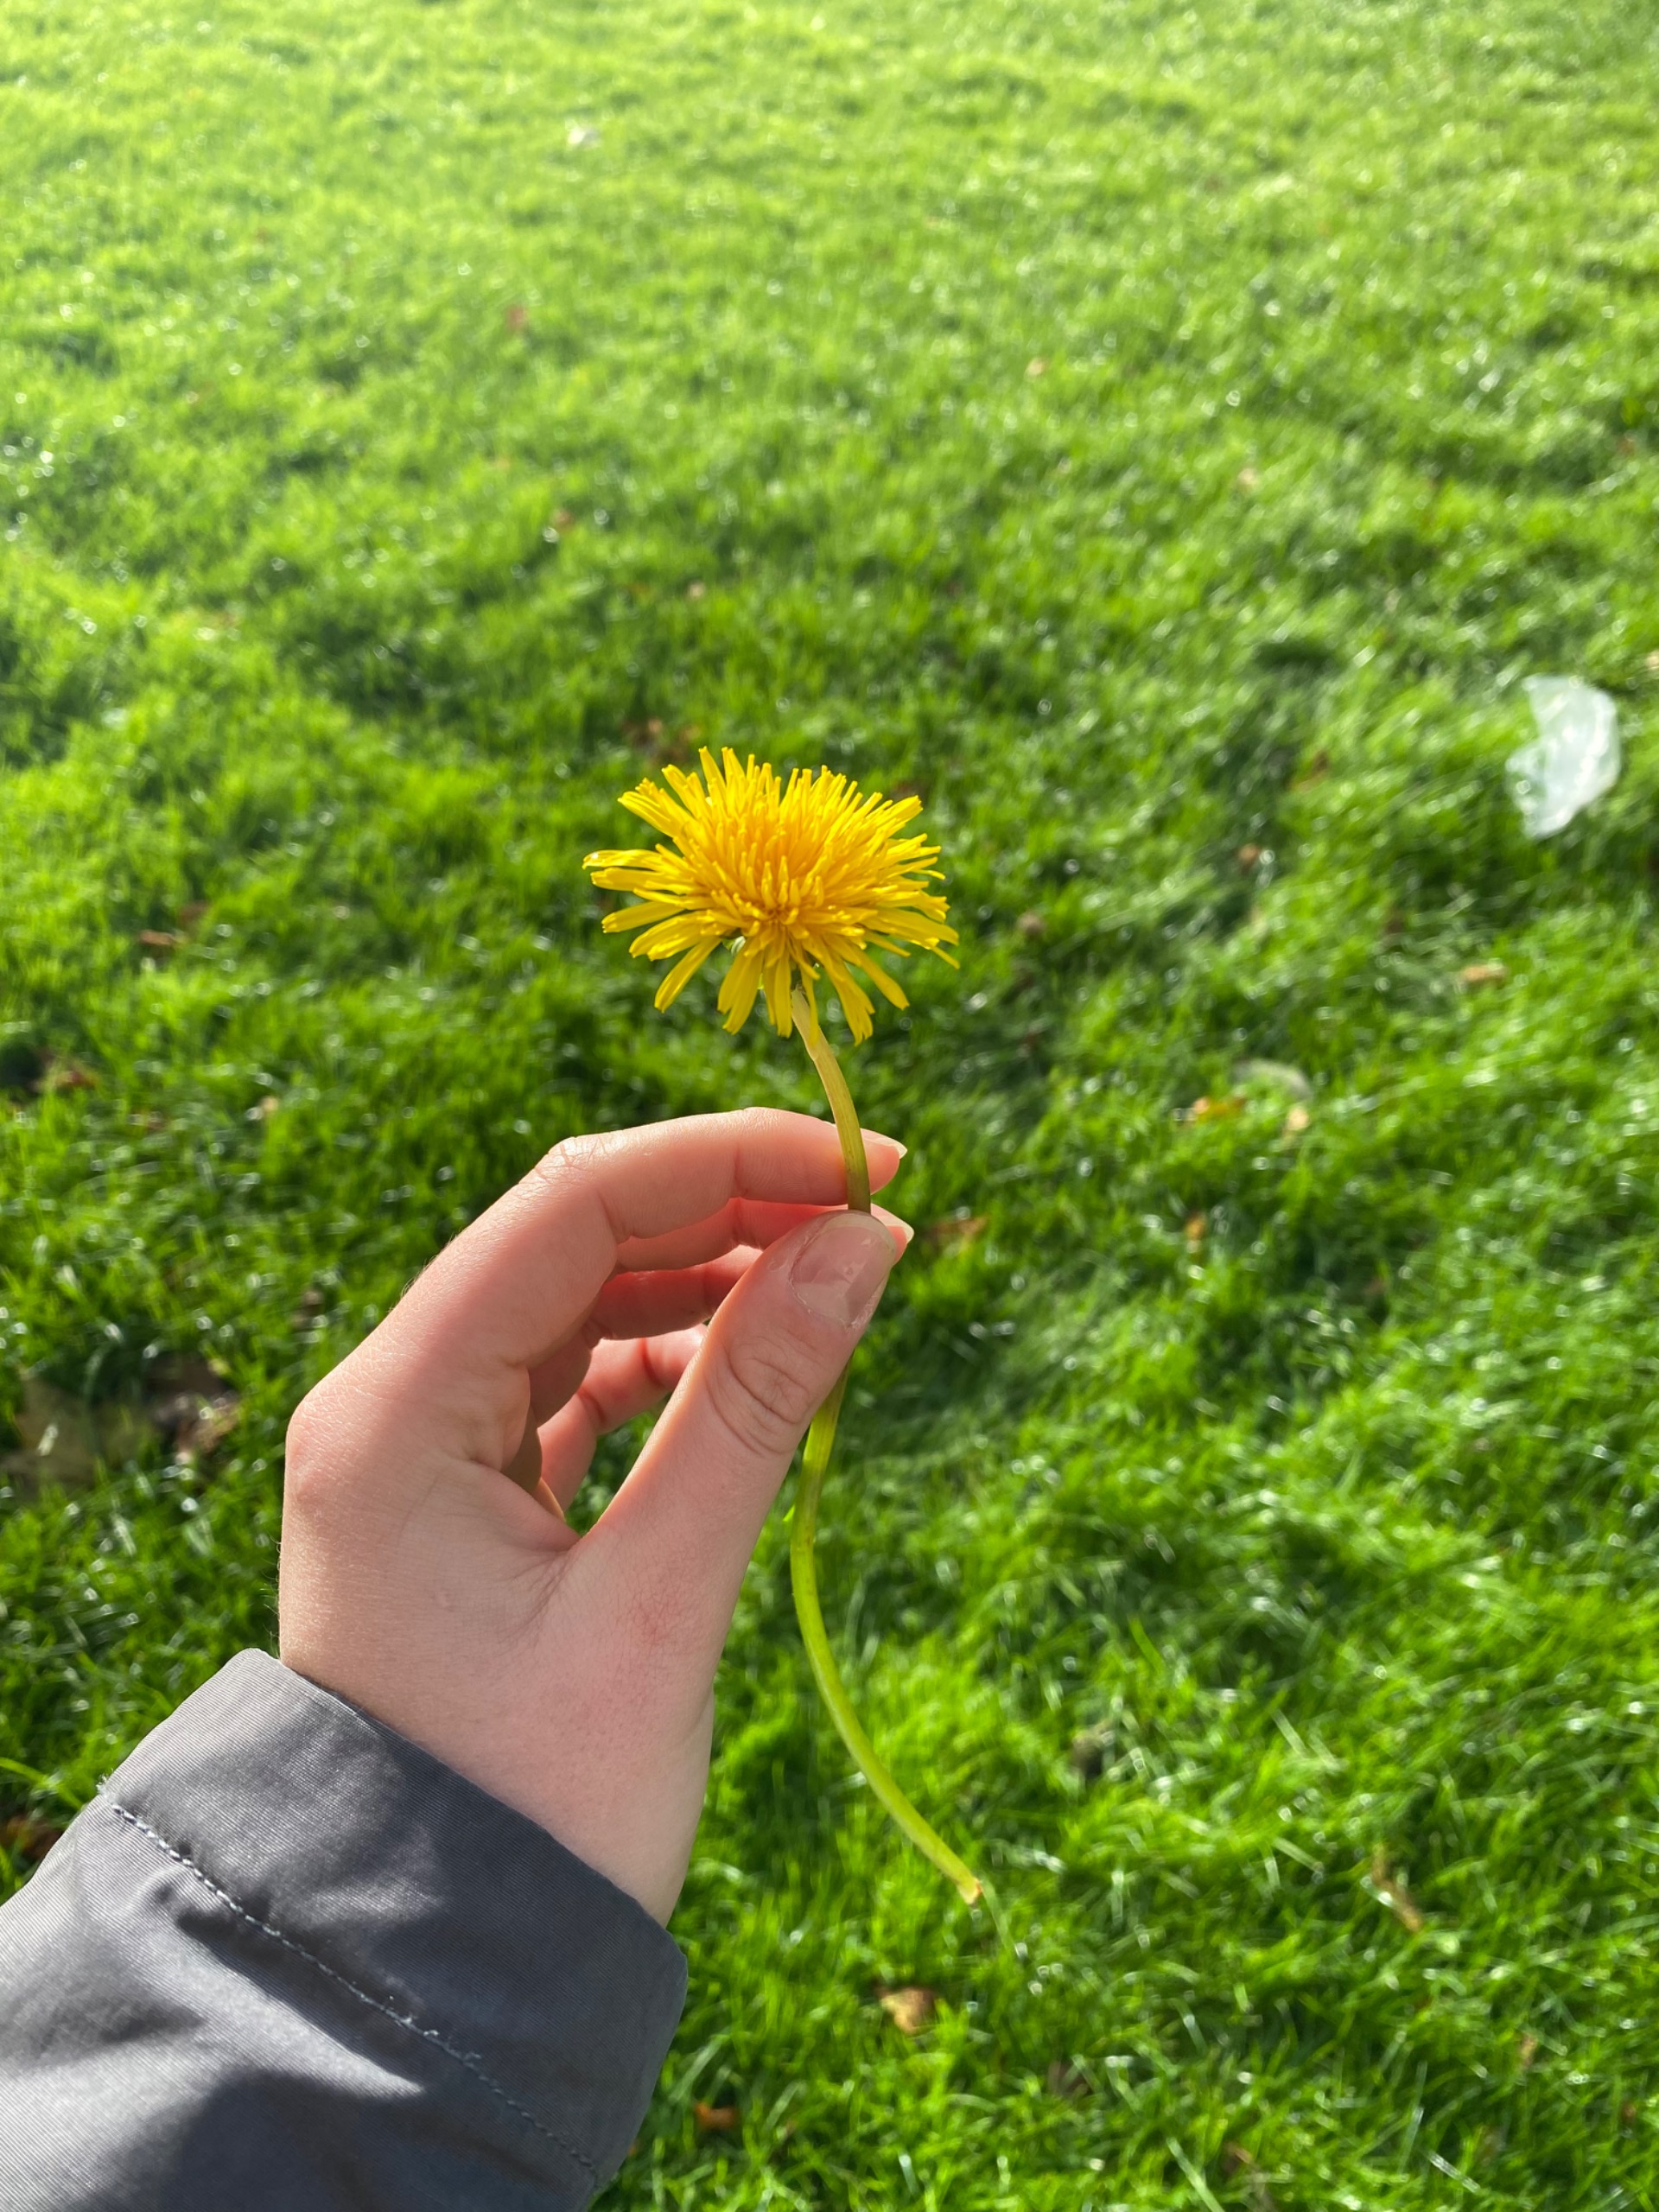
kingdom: Plantae
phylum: Tracheophyta
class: Magnoliopsida
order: Asterales
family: Asteraceae
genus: Taraxacum
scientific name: Taraxacum
